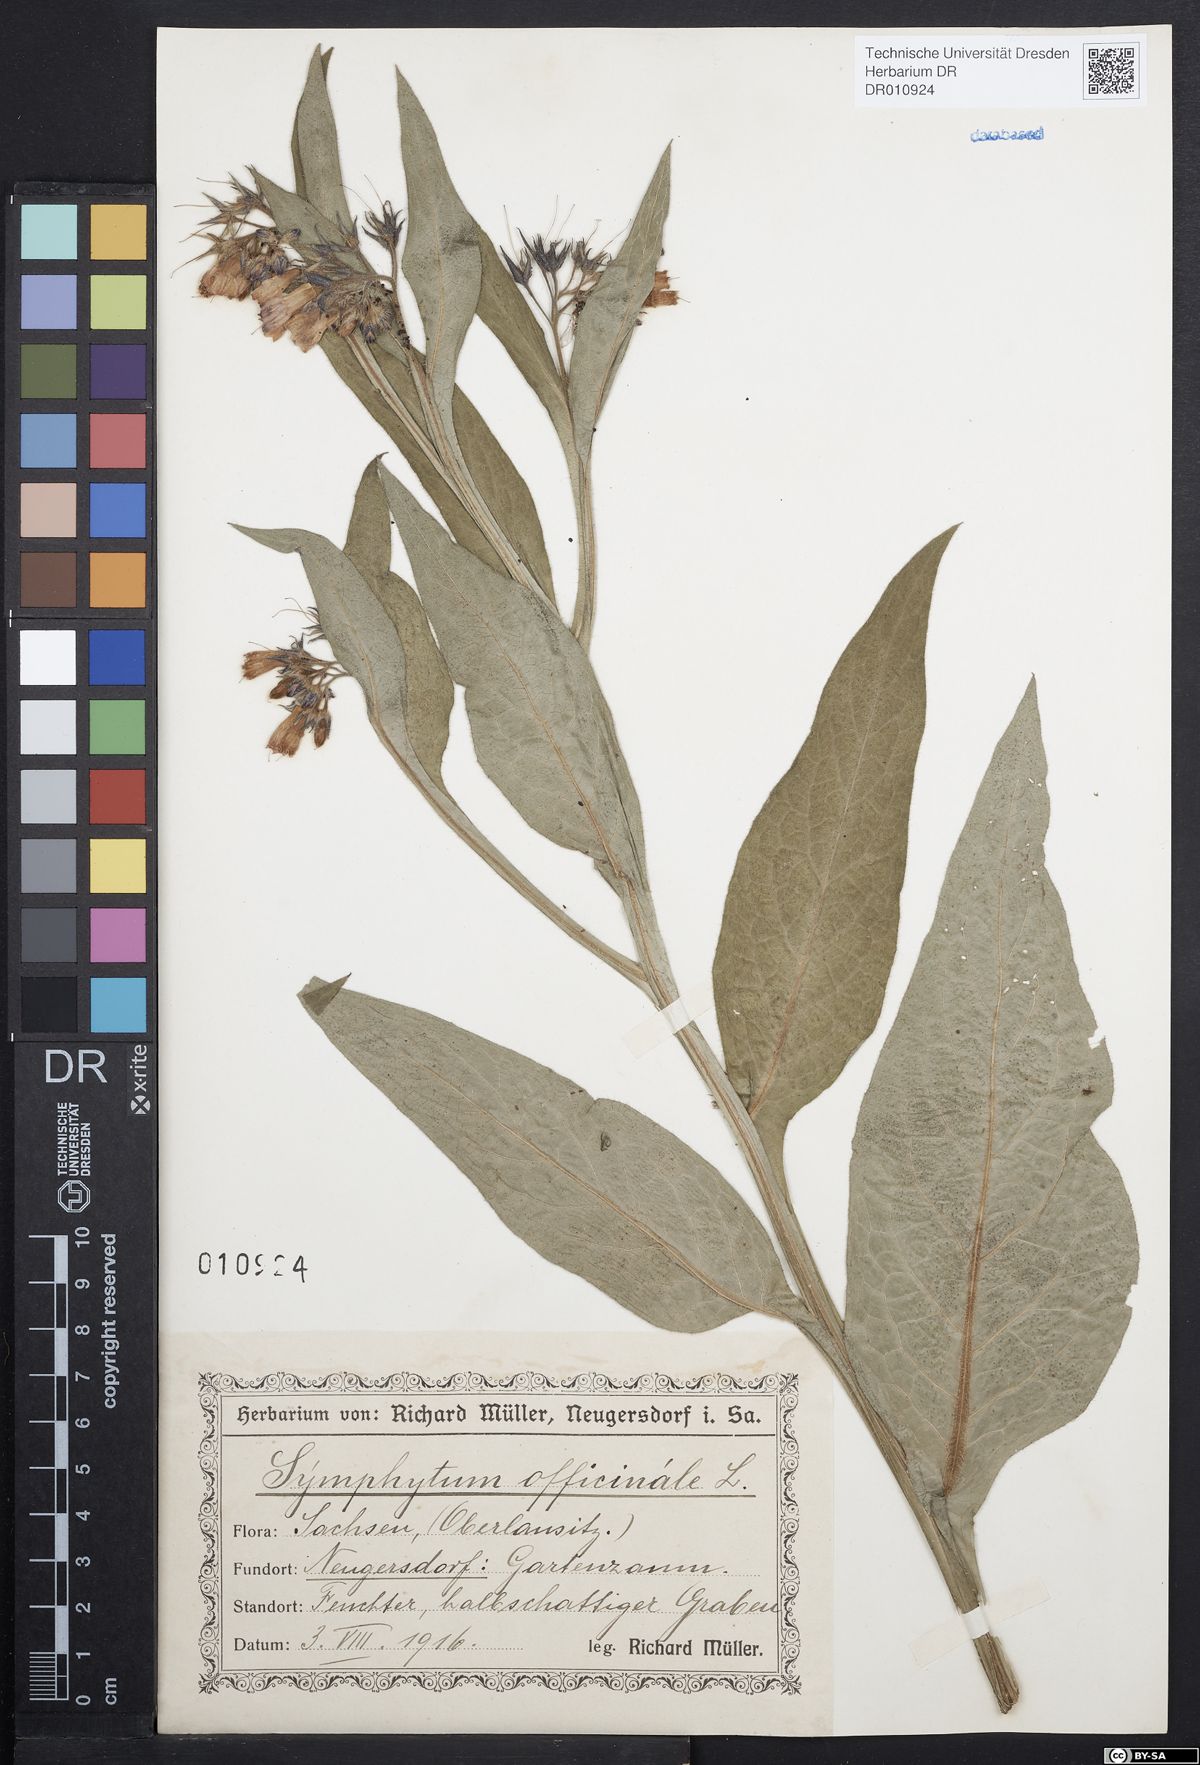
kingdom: Plantae
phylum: Tracheophyta
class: Magnoliopsida
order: Boraginales
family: Boraginaceae
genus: Symphytum
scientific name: Symphytum officinale
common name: Common comfrey
